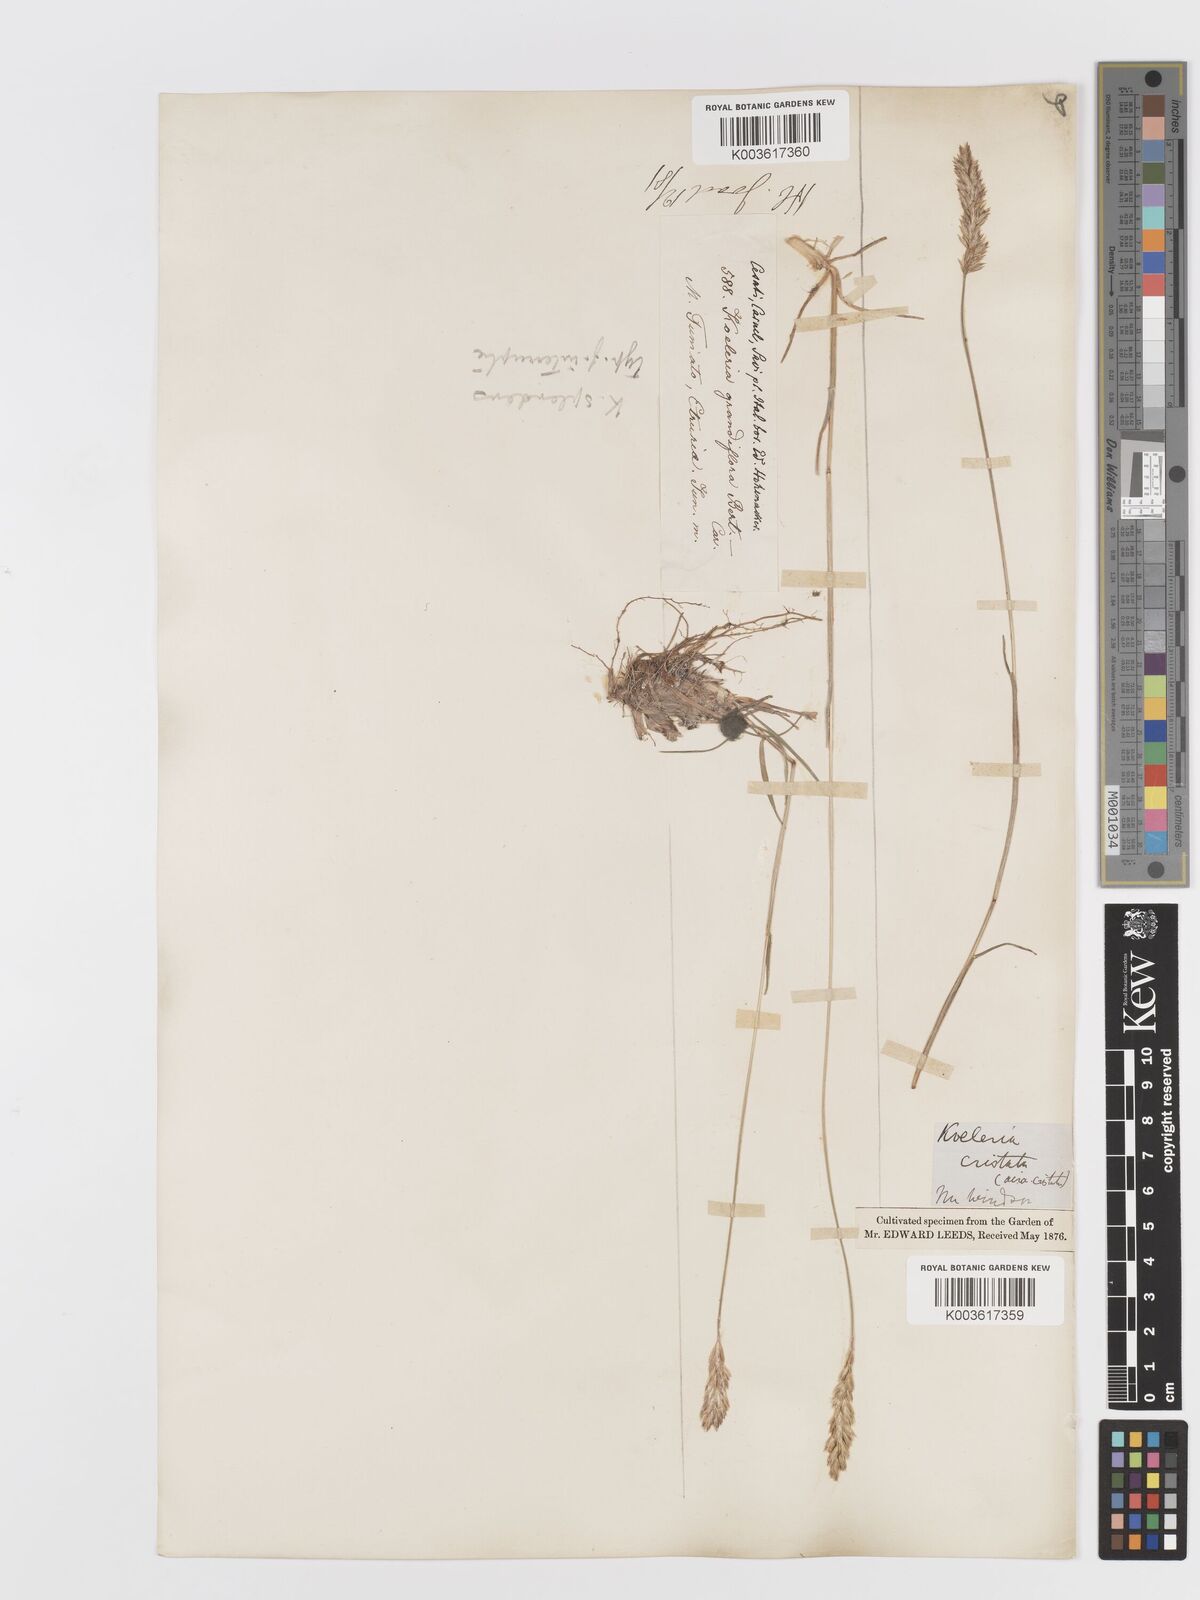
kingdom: Plantae
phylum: Tracheophyta
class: Liliopsida
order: Poales
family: Poaceae
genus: Koeleria
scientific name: Koeleria splendens
